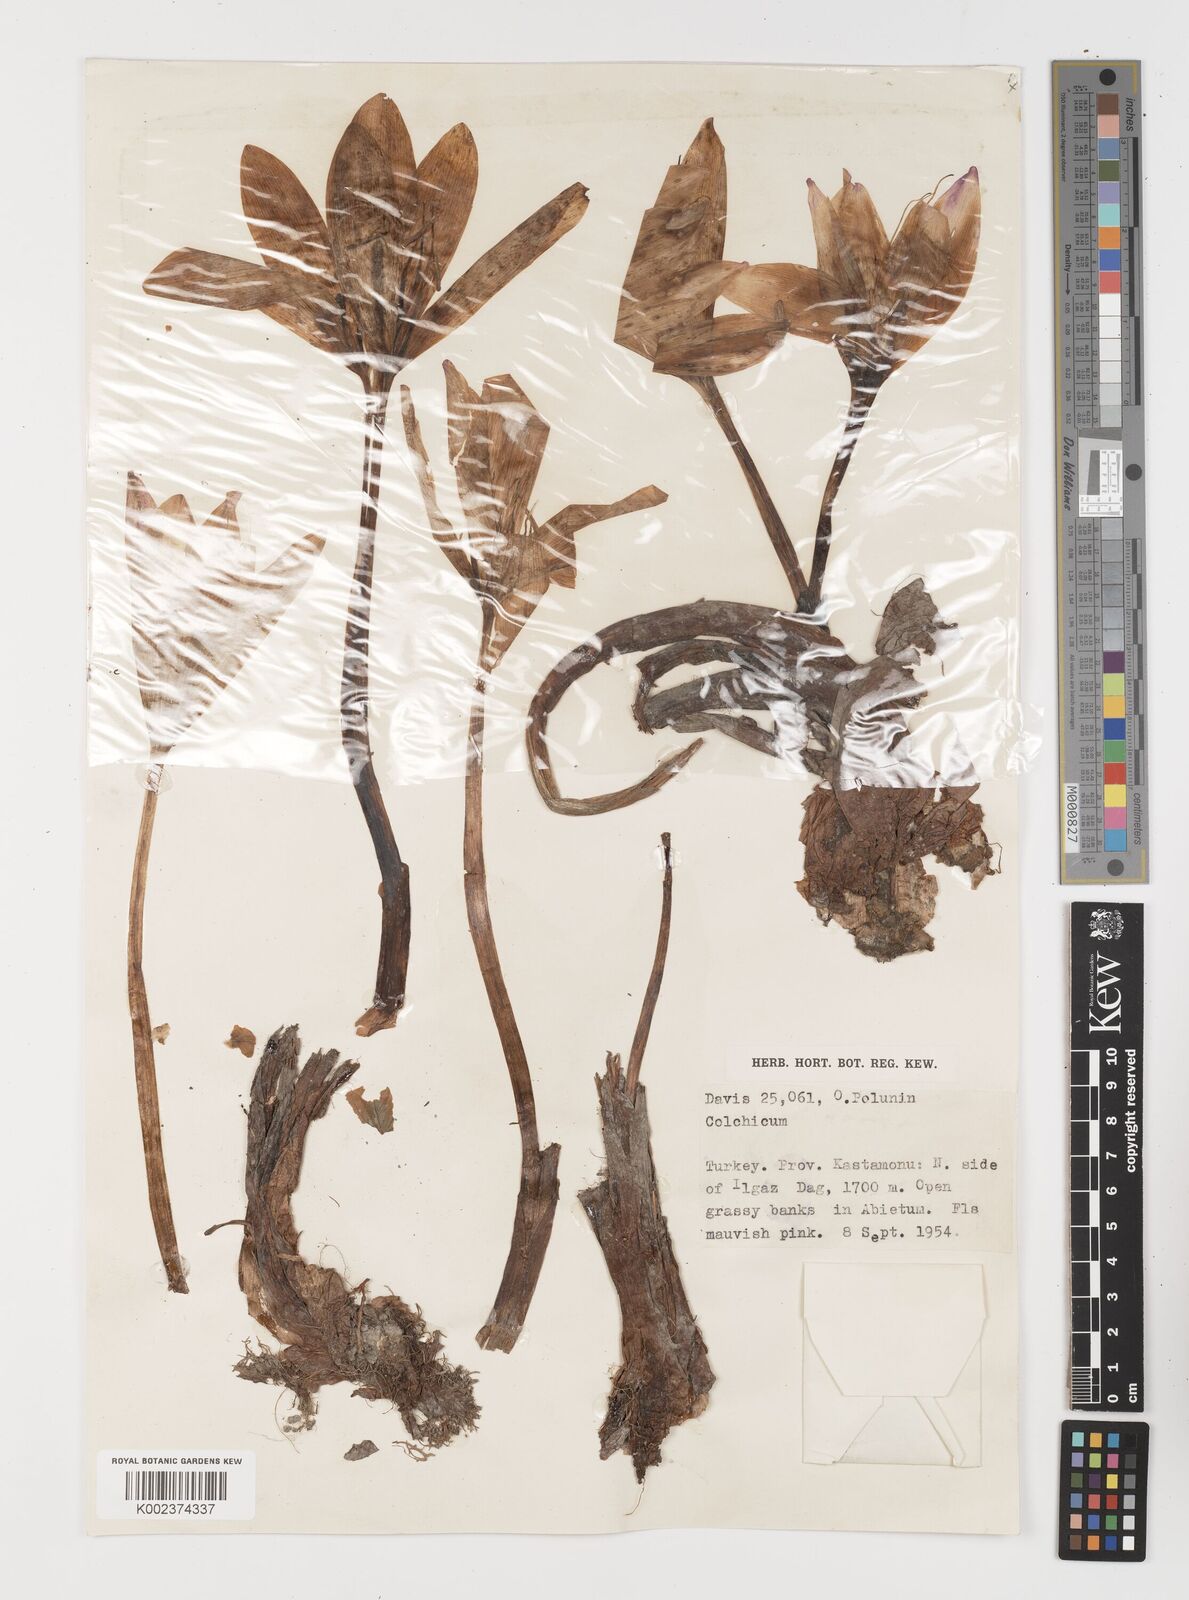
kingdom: Plantae
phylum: Tracheophyta
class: Liliopsida
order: Liliales
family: Colchicaceae
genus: Colchicum
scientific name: Colchicum
